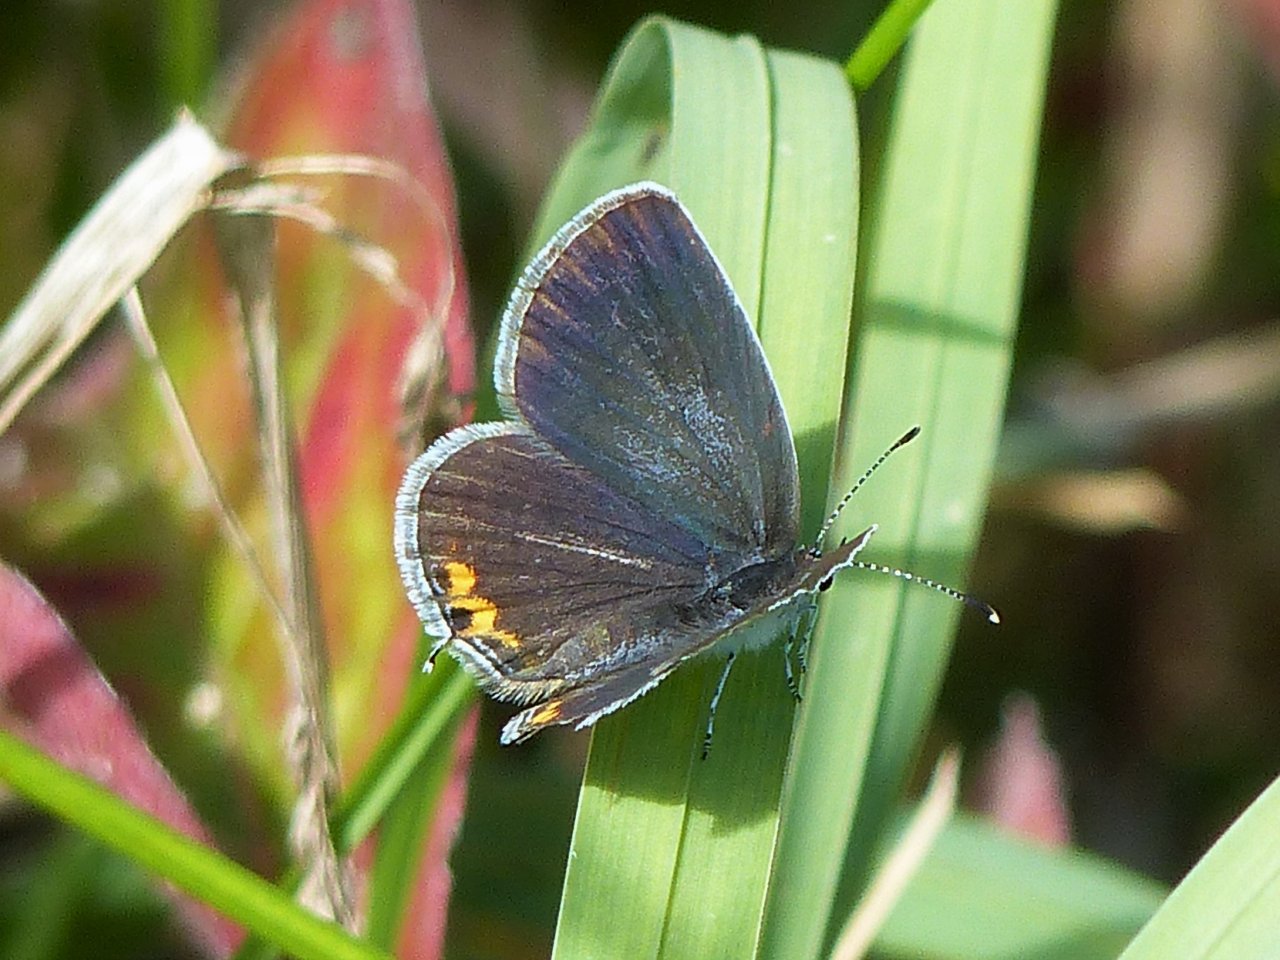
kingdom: Animalia
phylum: Arthropoda
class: Insecta
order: Lepidoptera
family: Lycaenidae
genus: Elkalyce
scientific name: Elkalyce comyntas
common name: Eastern Tailed-Blue
